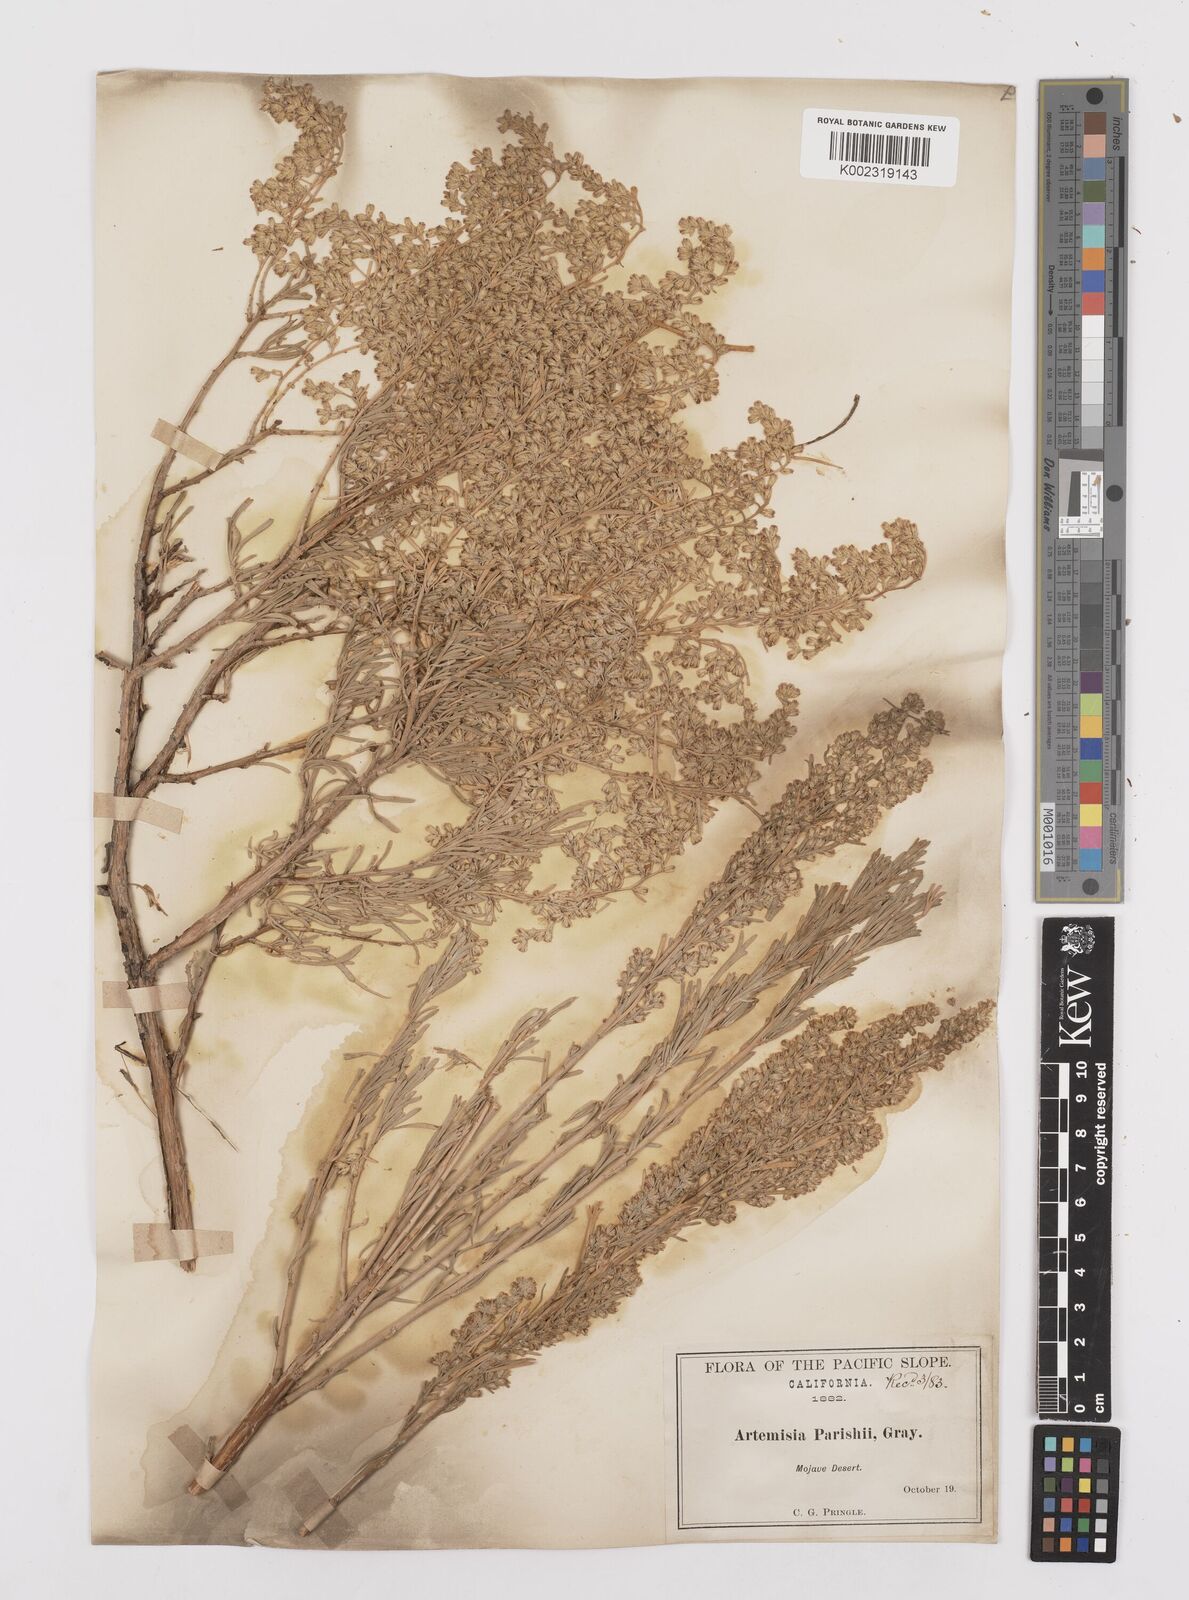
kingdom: Plantae
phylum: Tracheophyta
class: Magnoliopsida
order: Asterales
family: Asteraceae
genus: Artemisia
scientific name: Artemisia tridentata
